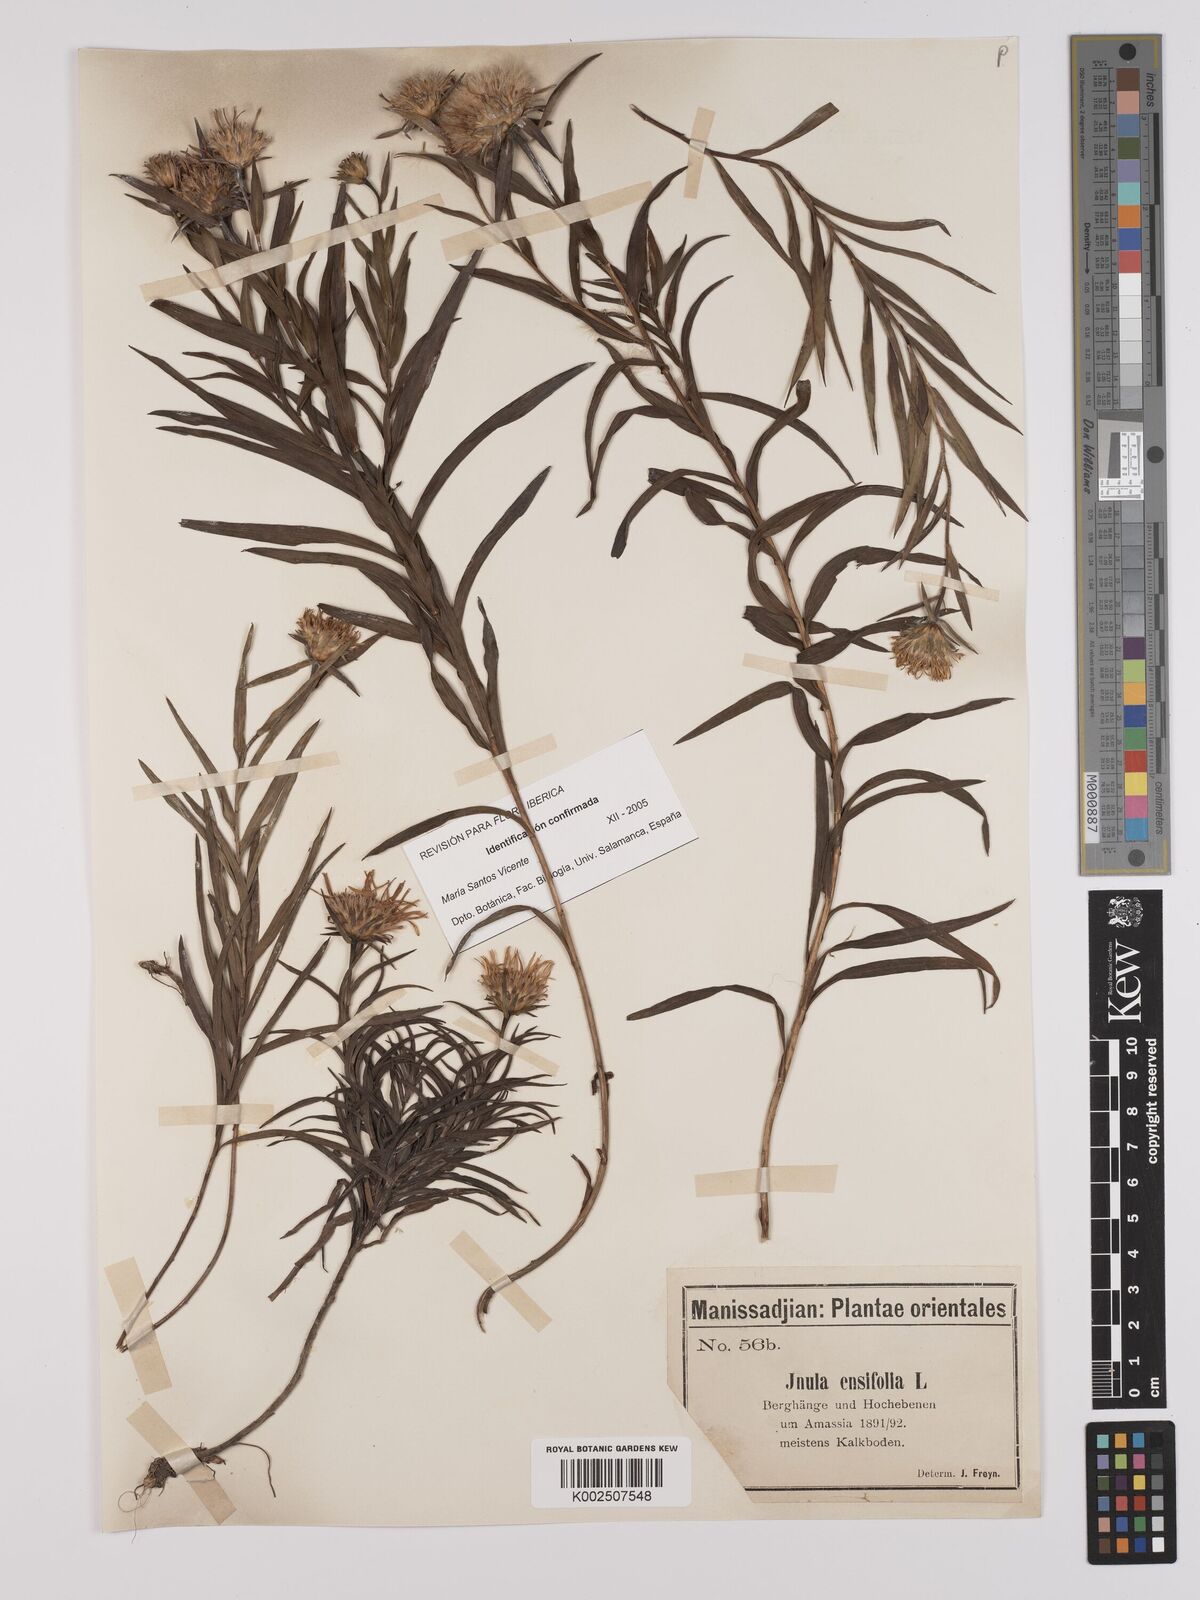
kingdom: Plantae
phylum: Tracheophyta
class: Magnoliopsida
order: Asterales
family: Asteraceae
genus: Pentanema
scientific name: Pentanema ensifolium
